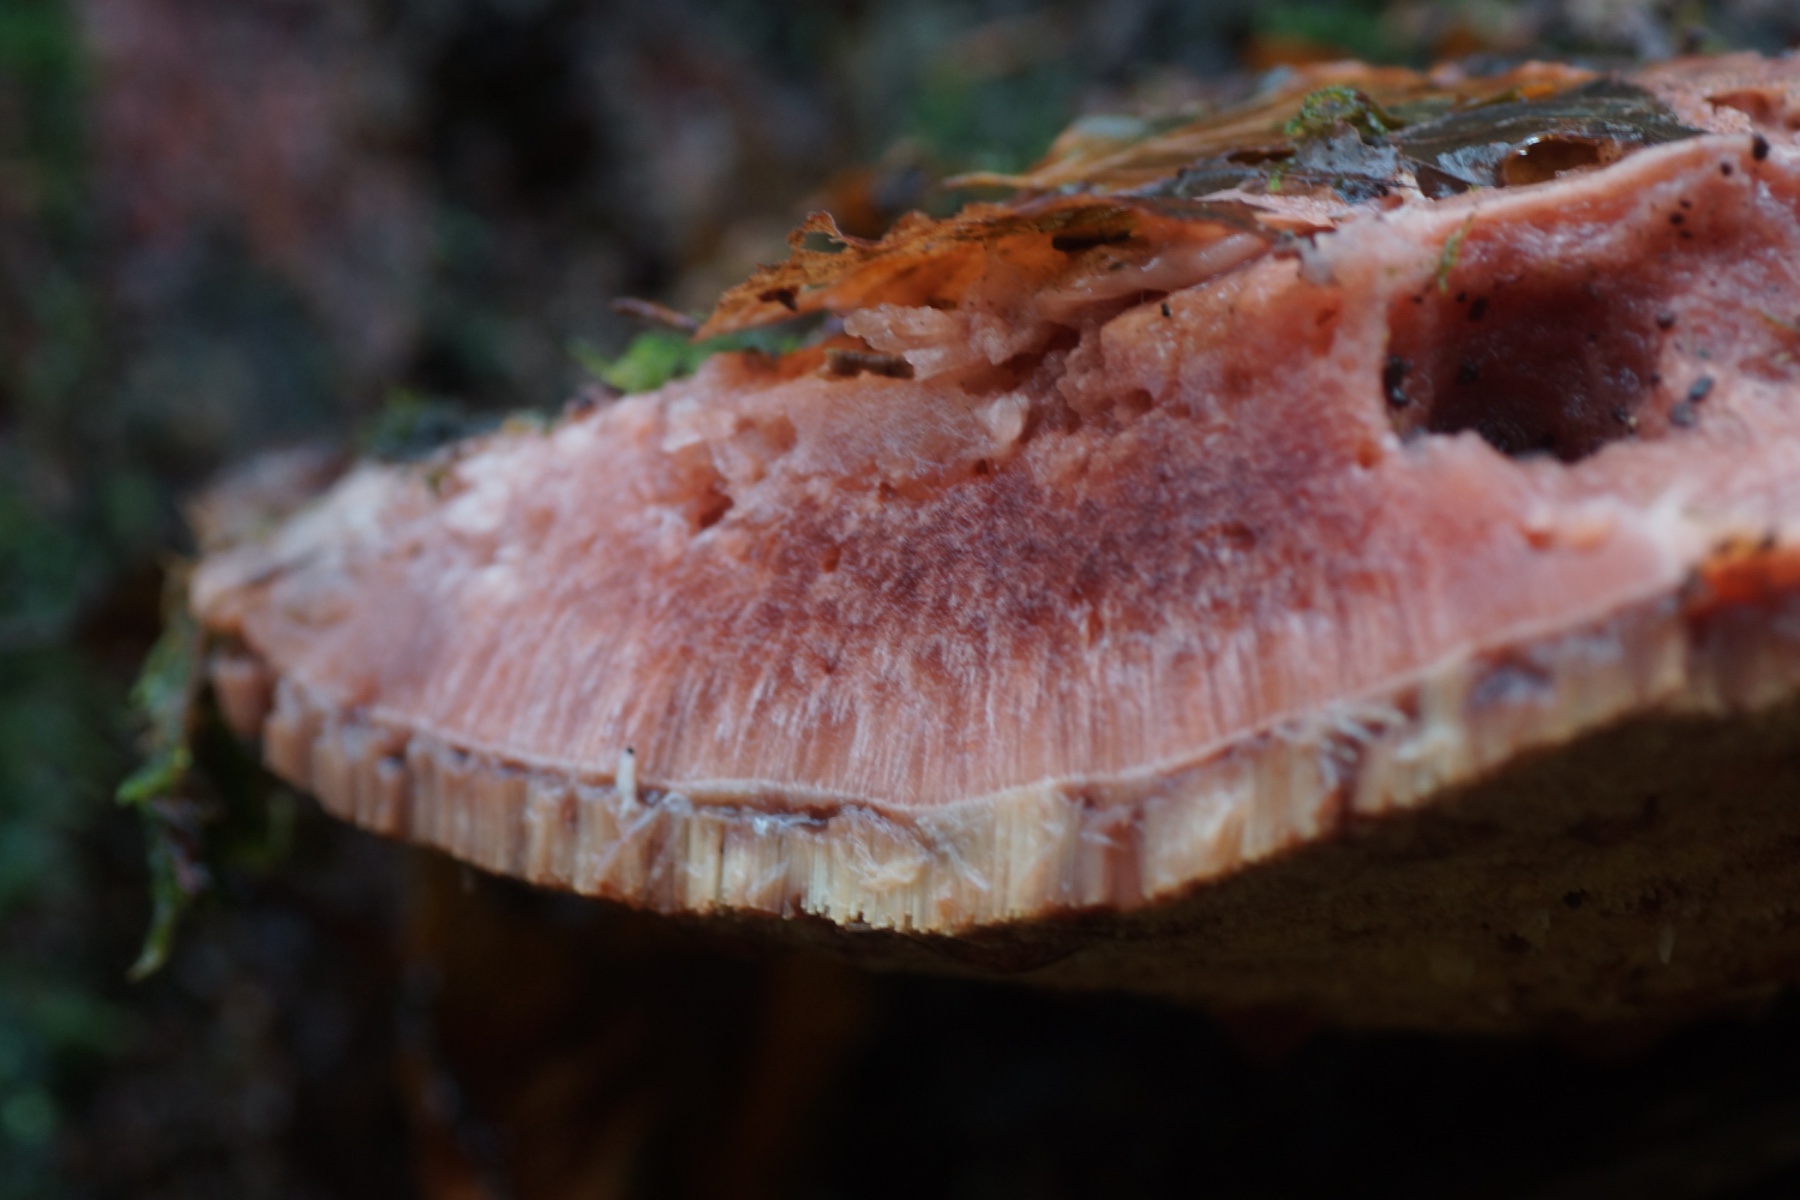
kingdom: Fungi
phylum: Basidiomycota
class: Agaricomycetes
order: Agaricales
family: Fistulinaceae
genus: Fistulina
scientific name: Fistulina hepatica
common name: oksetunge
